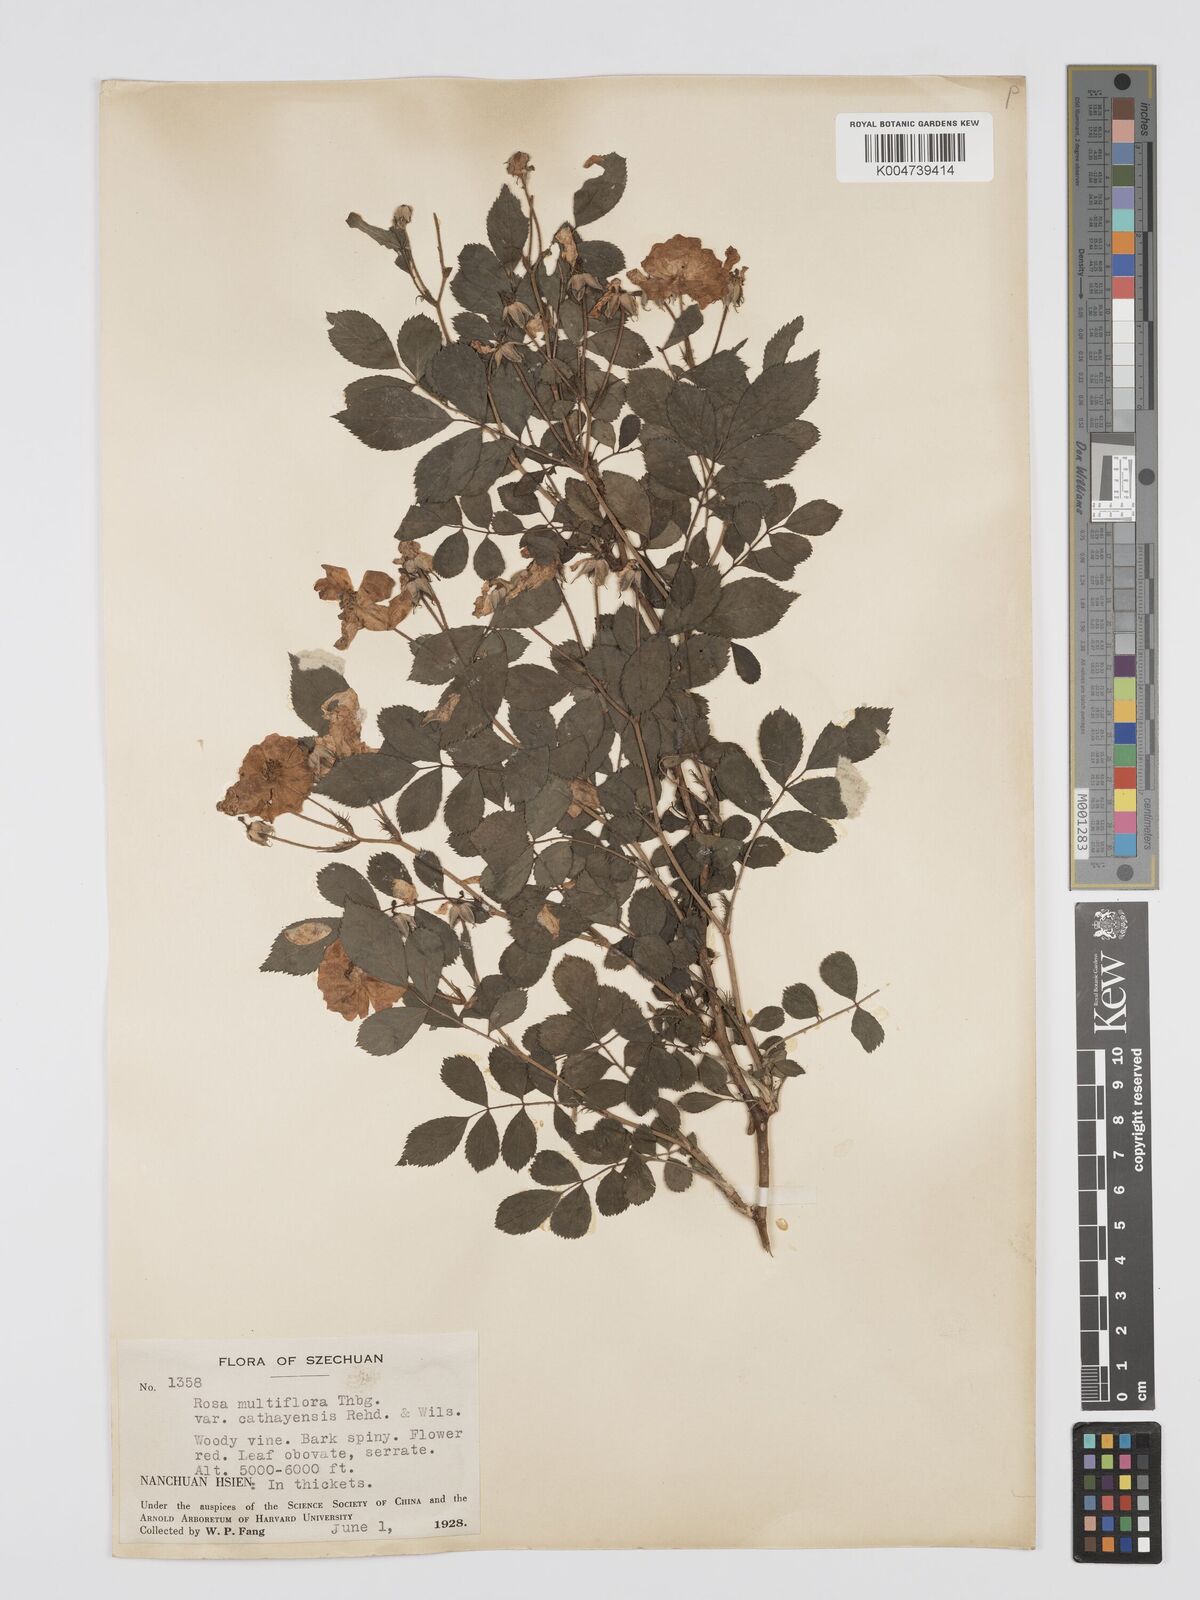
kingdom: Plantae
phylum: Tracheophyta
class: Magnoliopsida
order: Rosales
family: Rosaceae
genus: Rosa
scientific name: Rosa multiflora
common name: Multiflora rose
